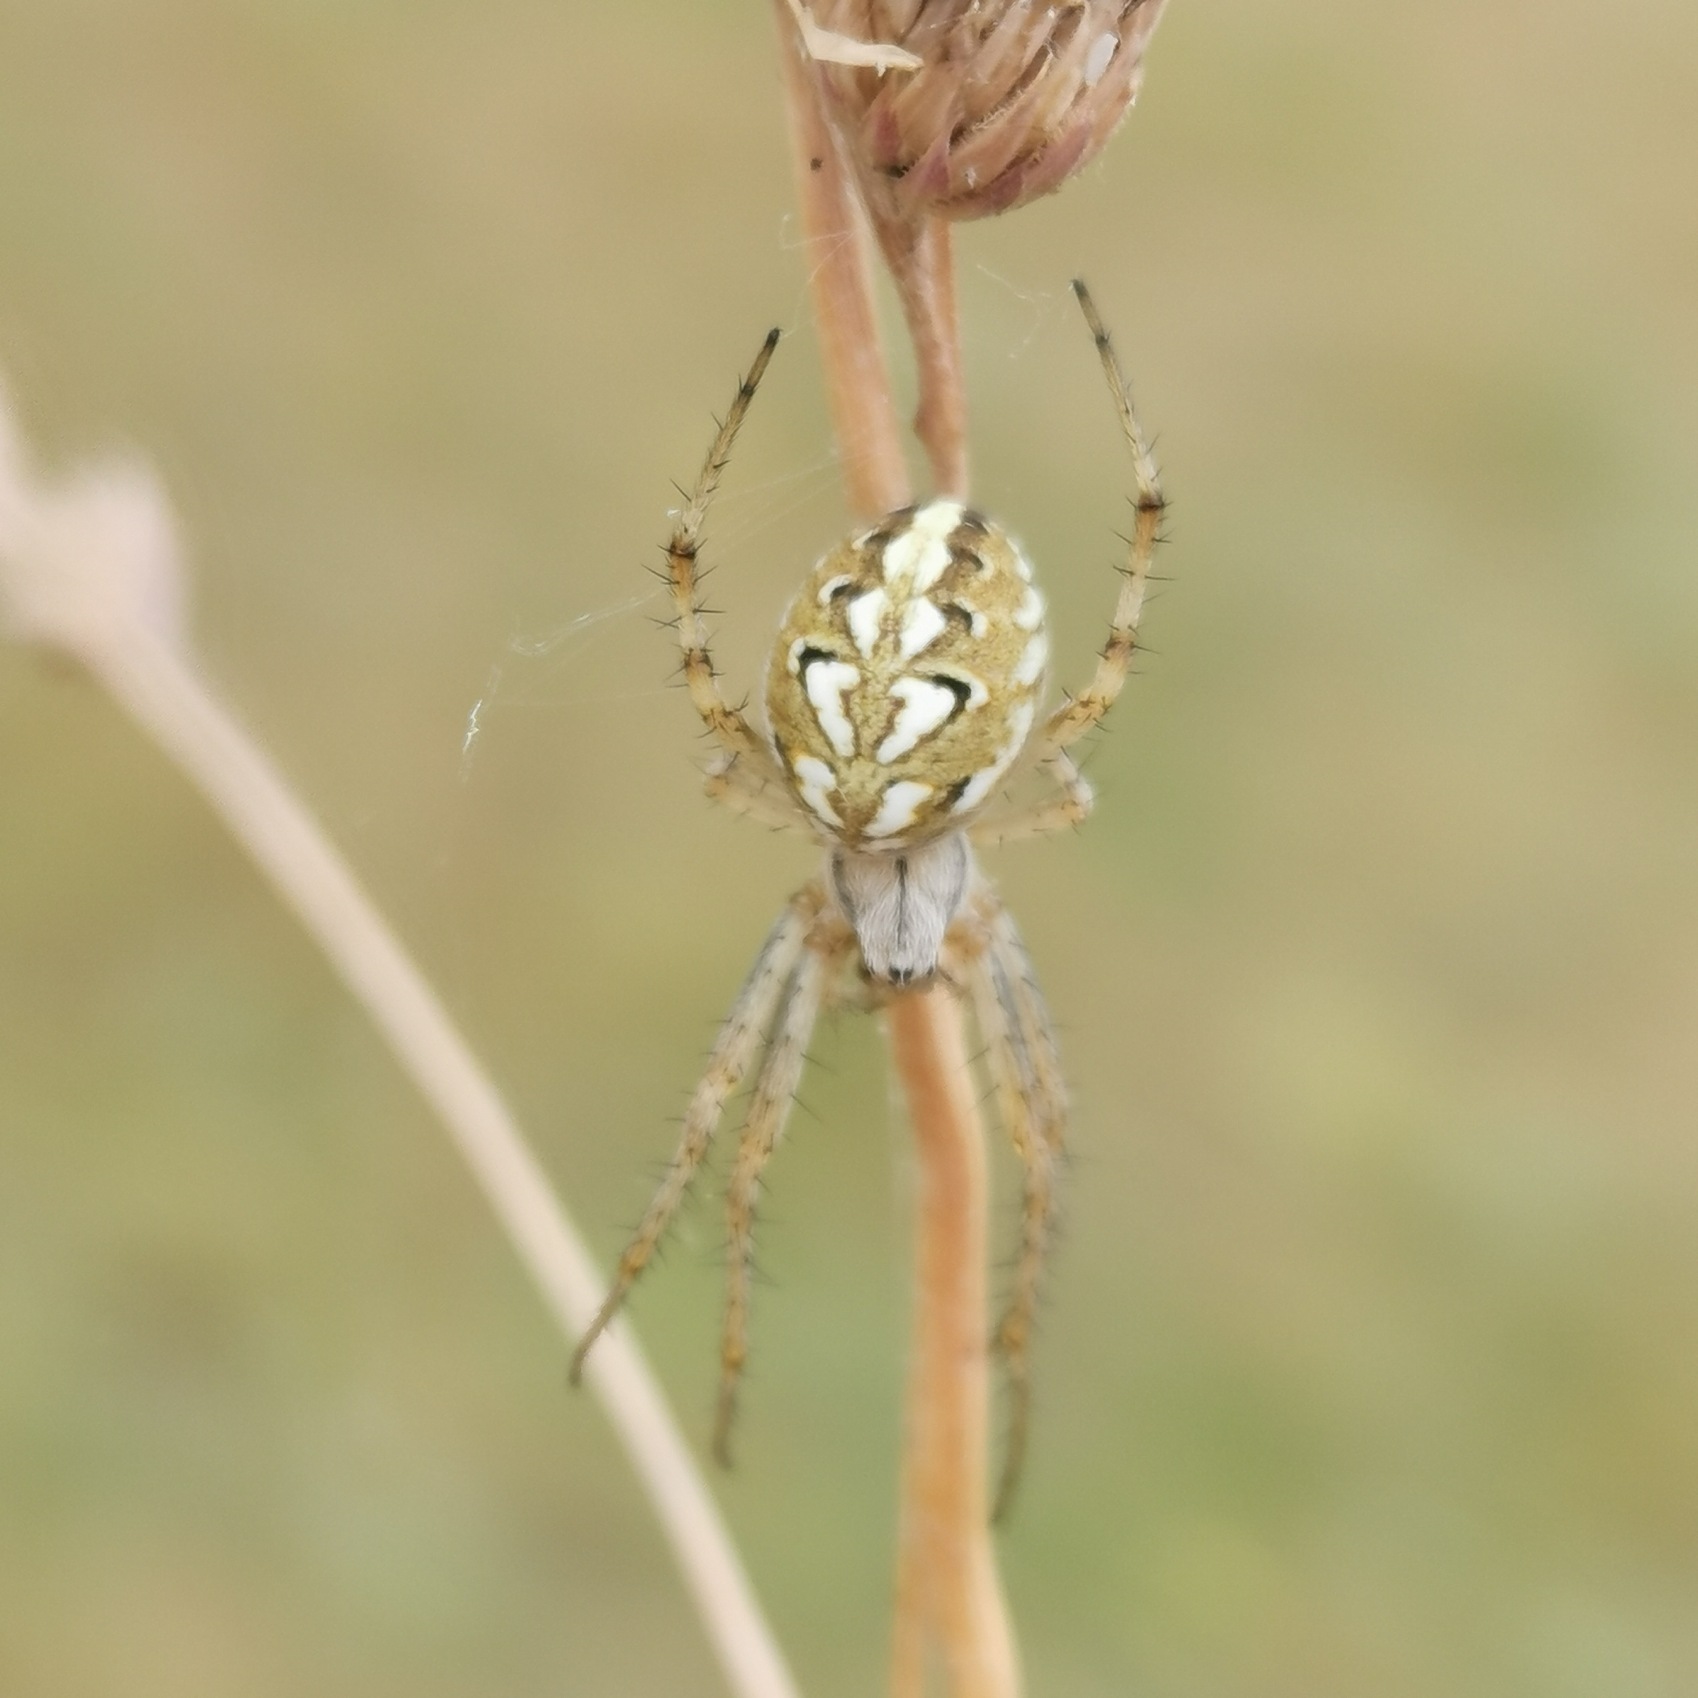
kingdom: Animalia
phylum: Arthropoda
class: Arachnida
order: Araneae
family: Araneidae
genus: Neoscona
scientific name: Neoscona adianta
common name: Klithjulspinder
